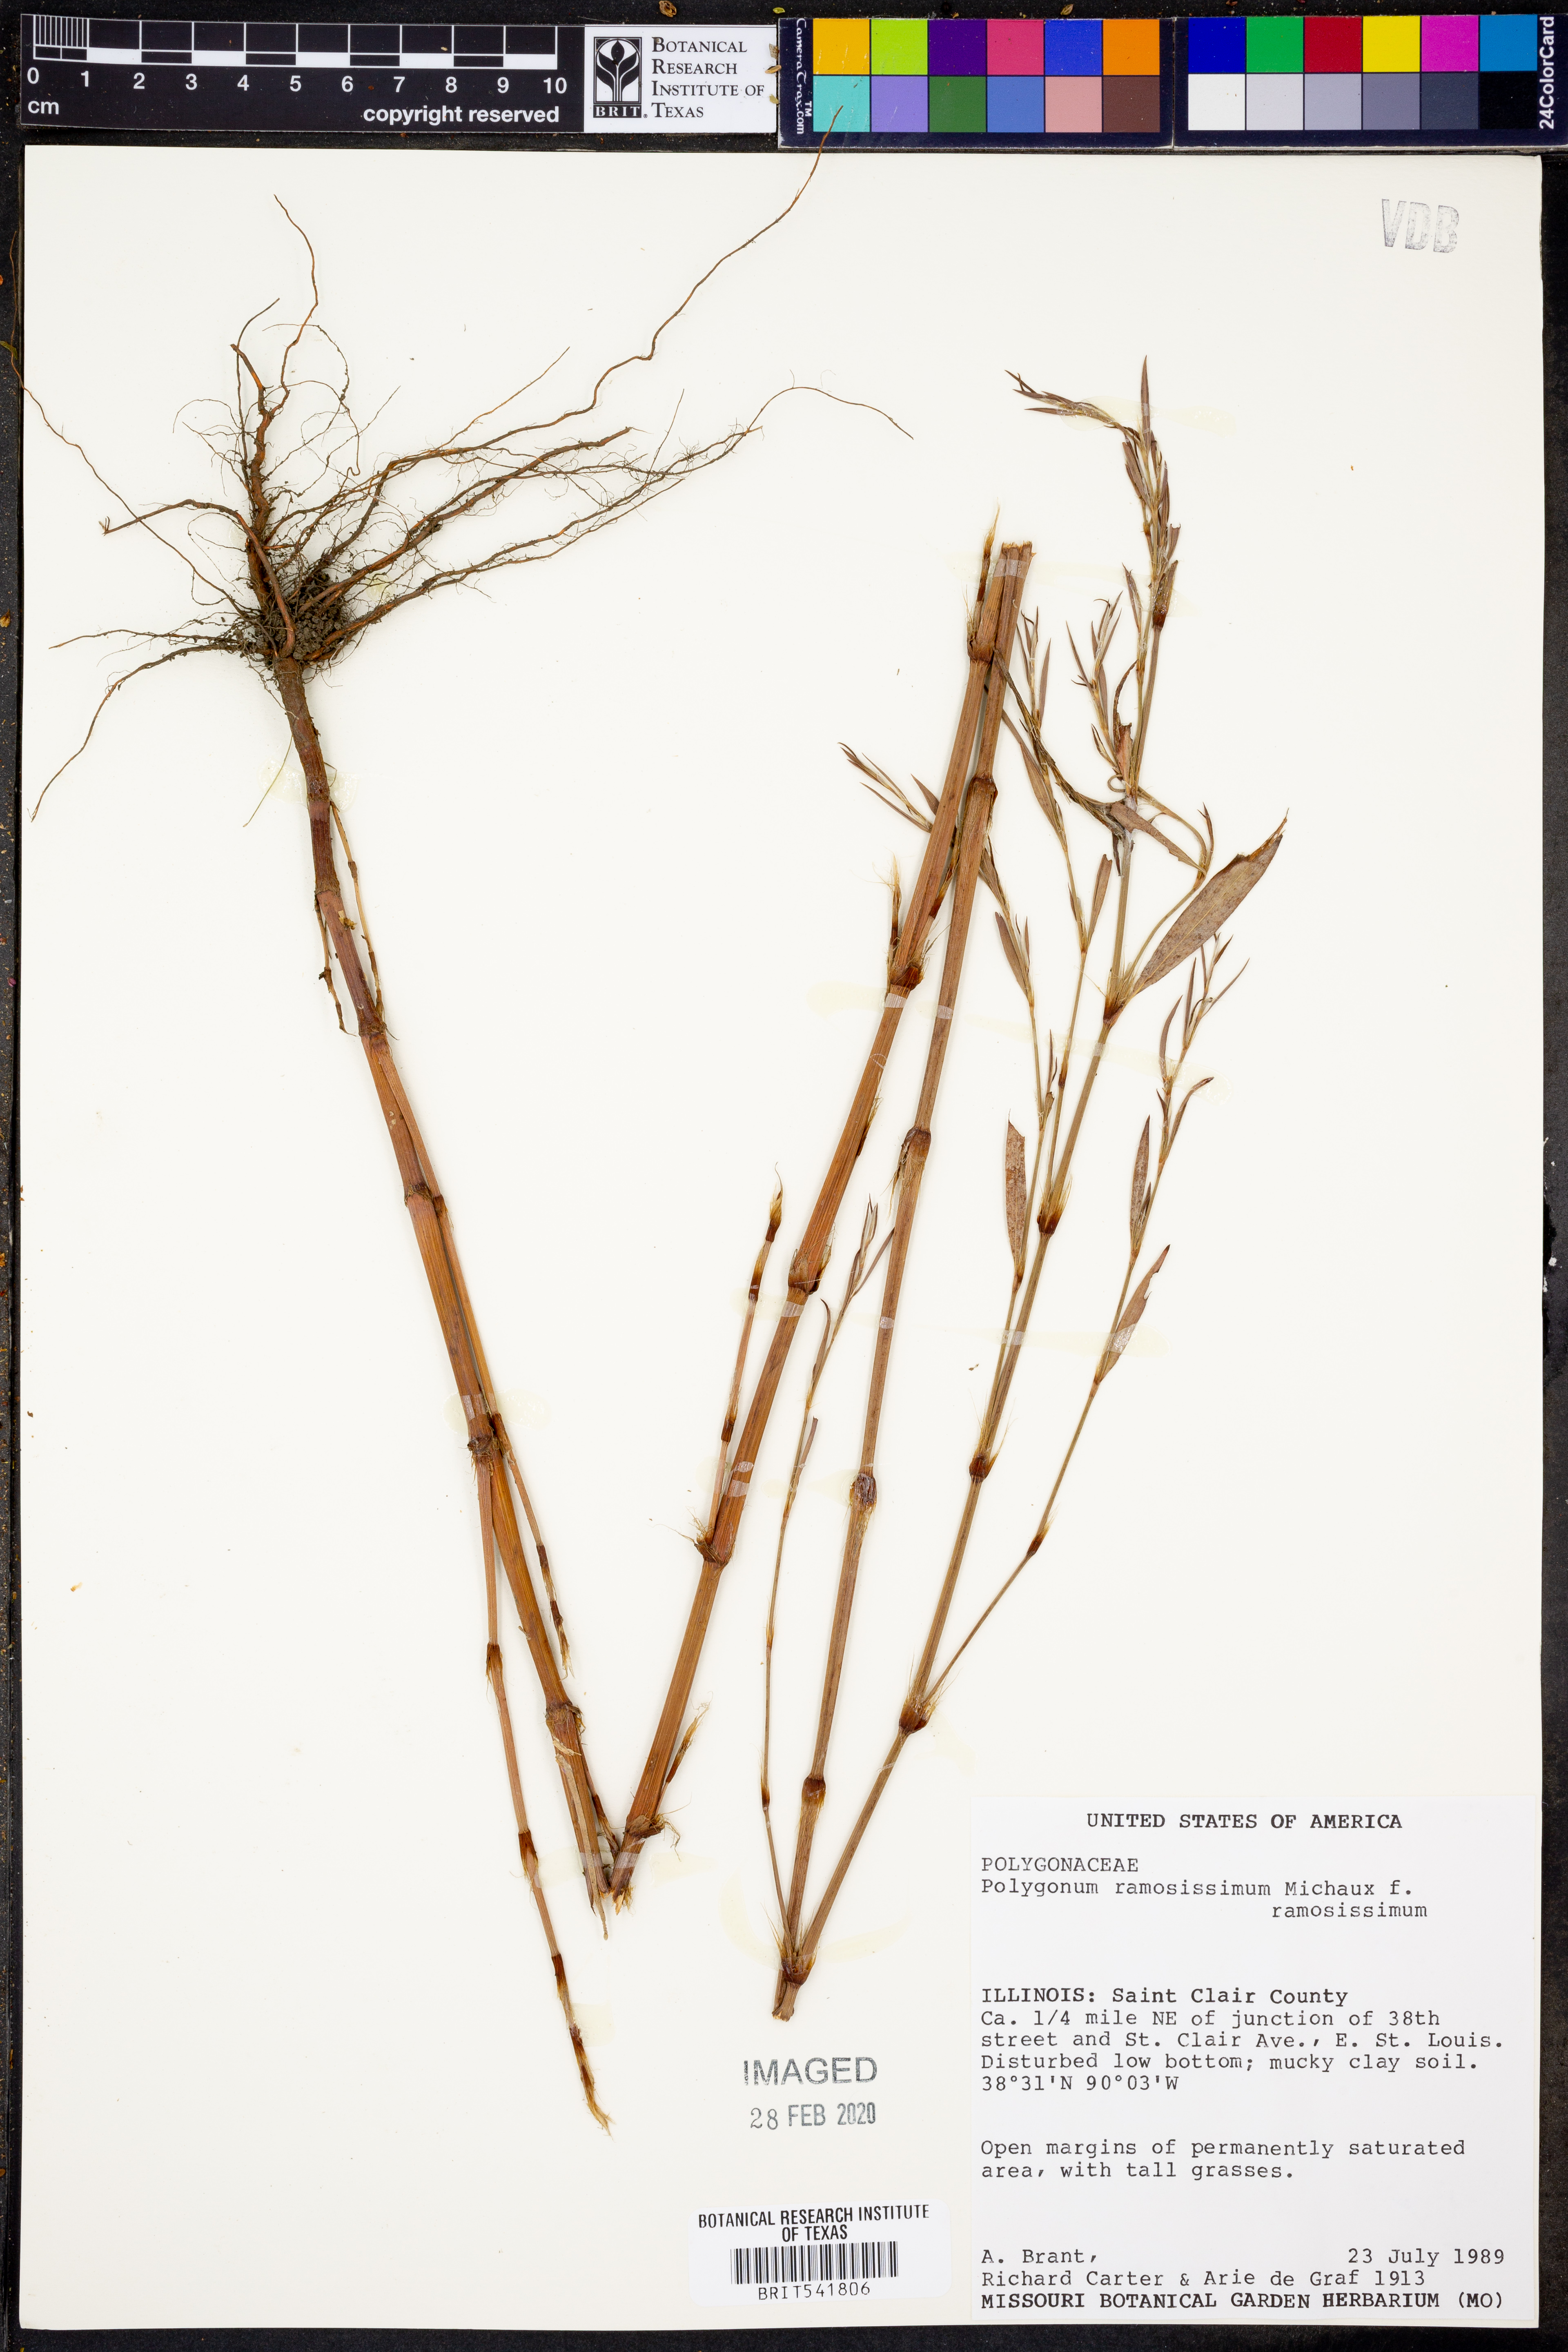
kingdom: Plantae
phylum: Tracheophyta
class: Magnoliopsida
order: Caryophyllales
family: Polygonaceae
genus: Polygonum
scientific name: Polygonum ramosissimum
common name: Bushy knotweed
